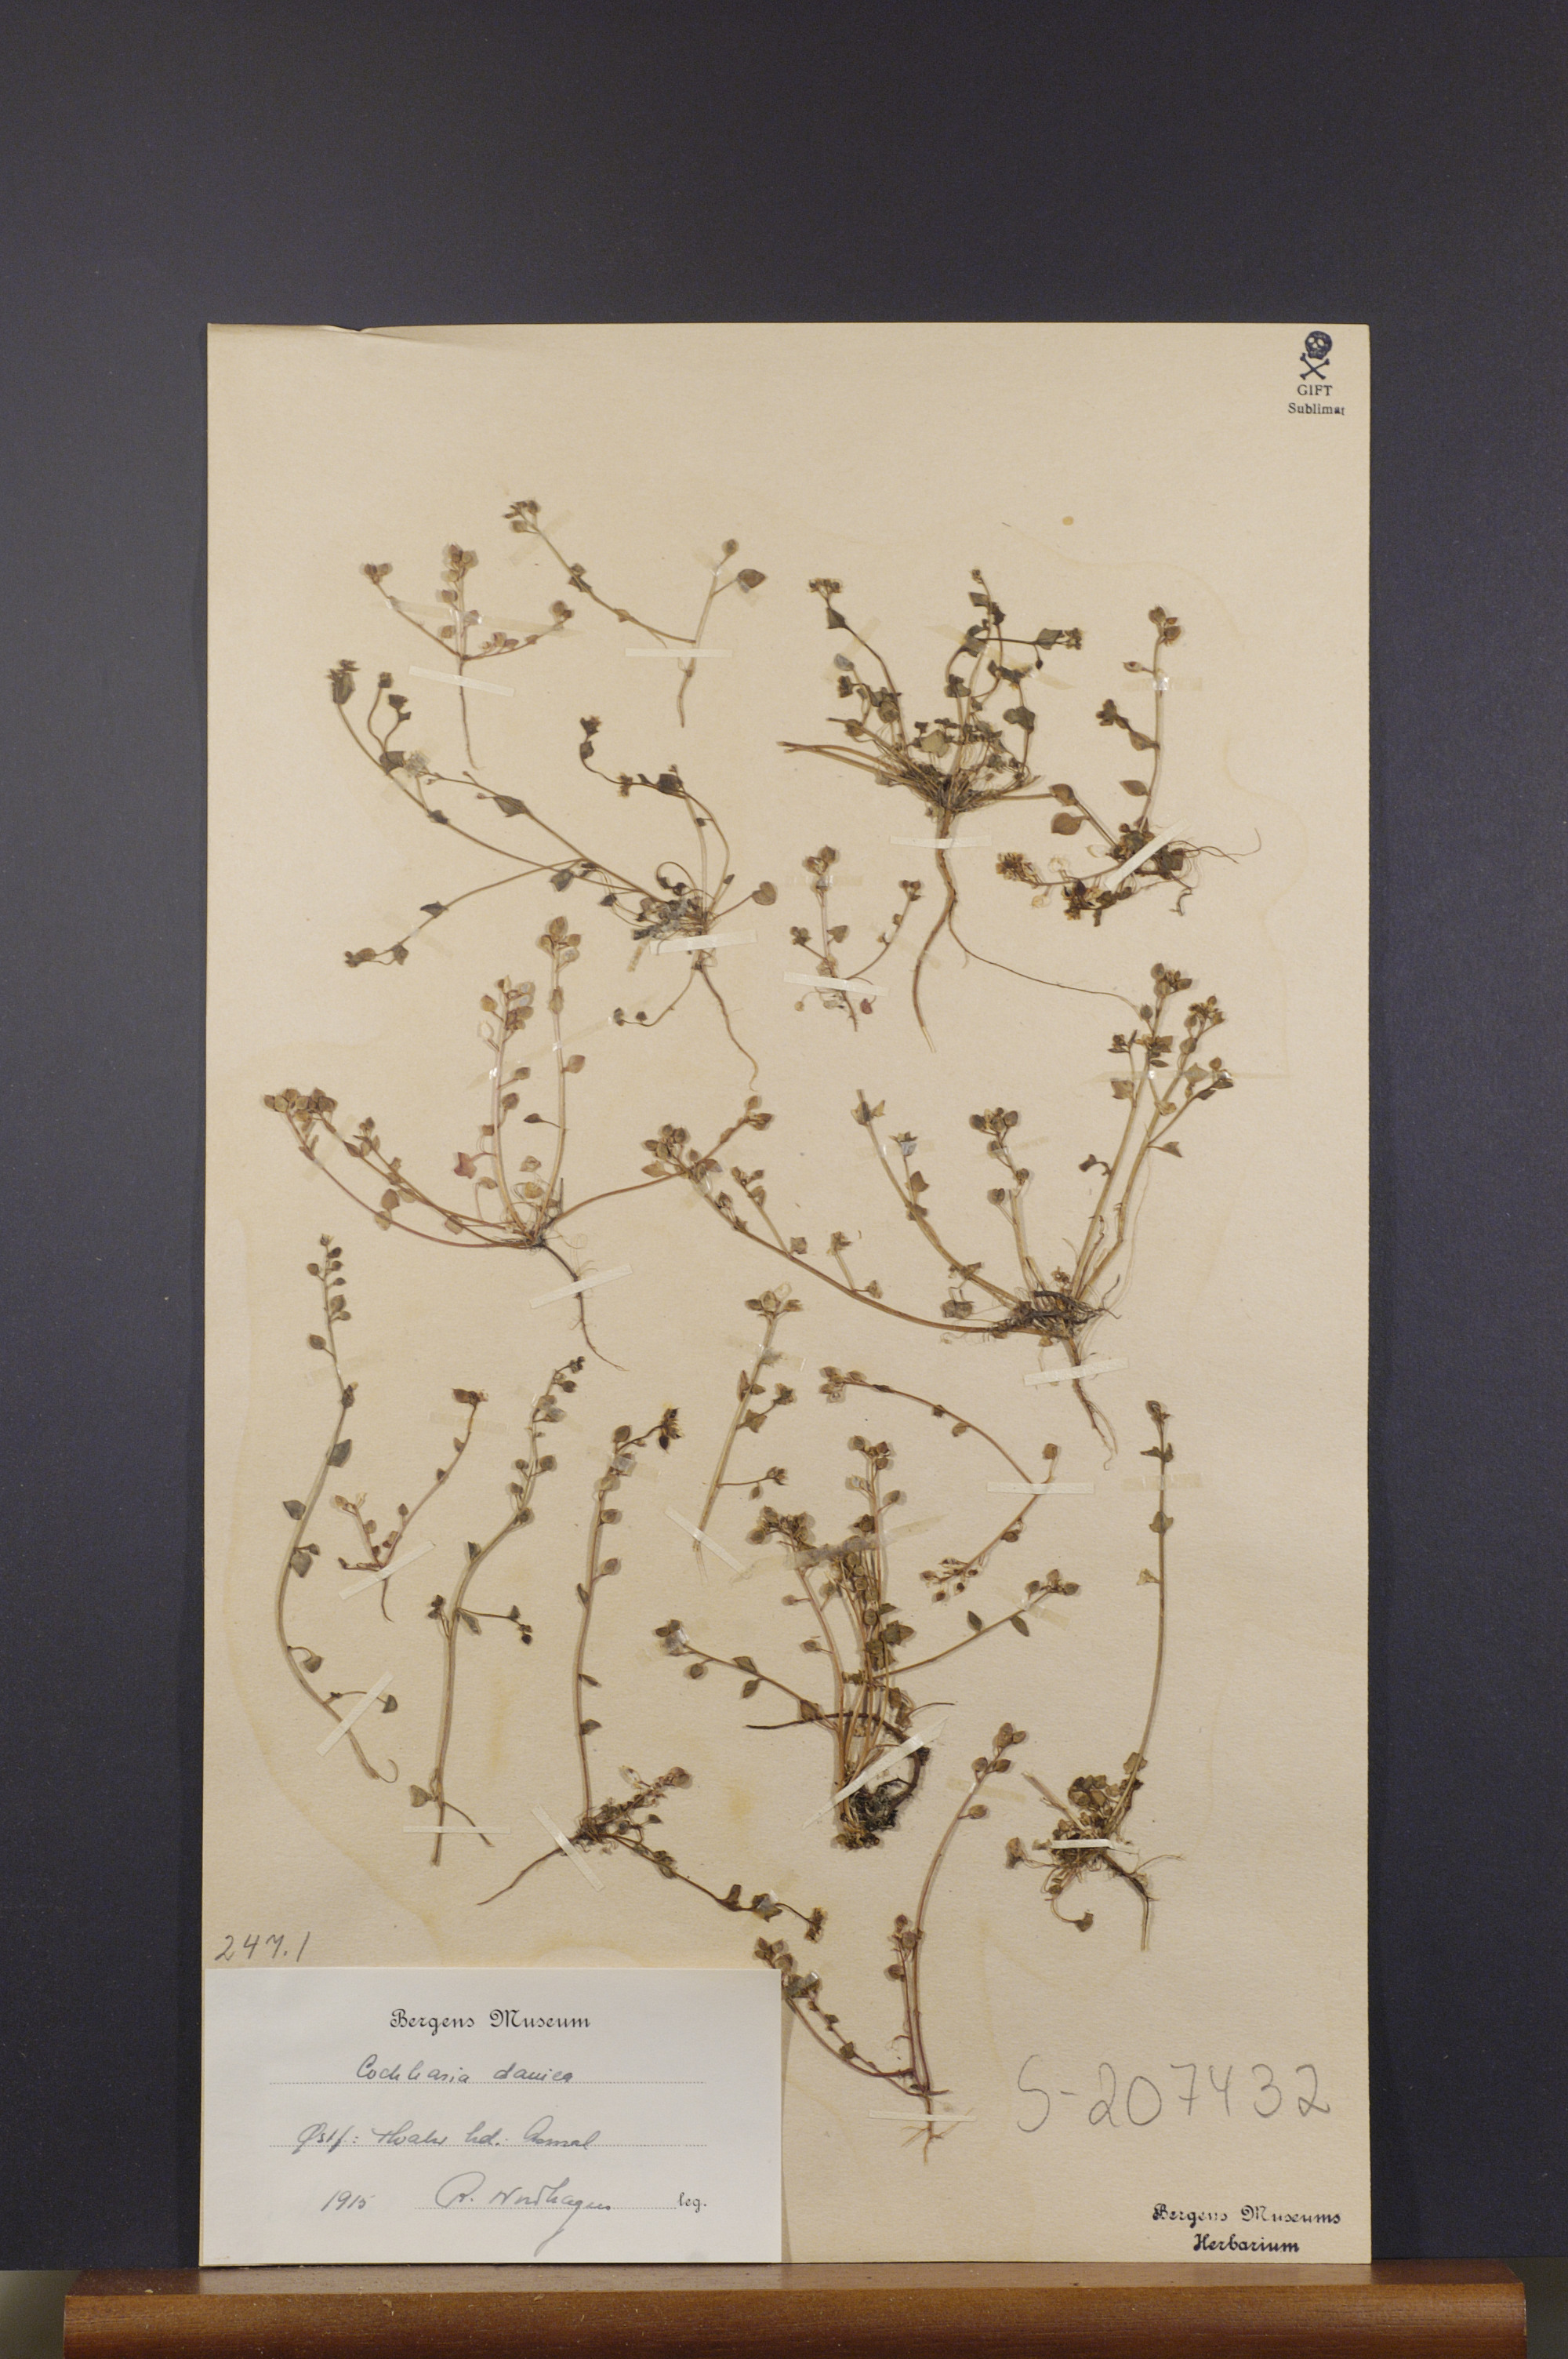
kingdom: Plantae
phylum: Tracheophyta
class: Magnoliopsida
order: Brassicales
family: Brassicaceae
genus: Cochlearia
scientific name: Cochlearia danica
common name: Early scurvygrass
